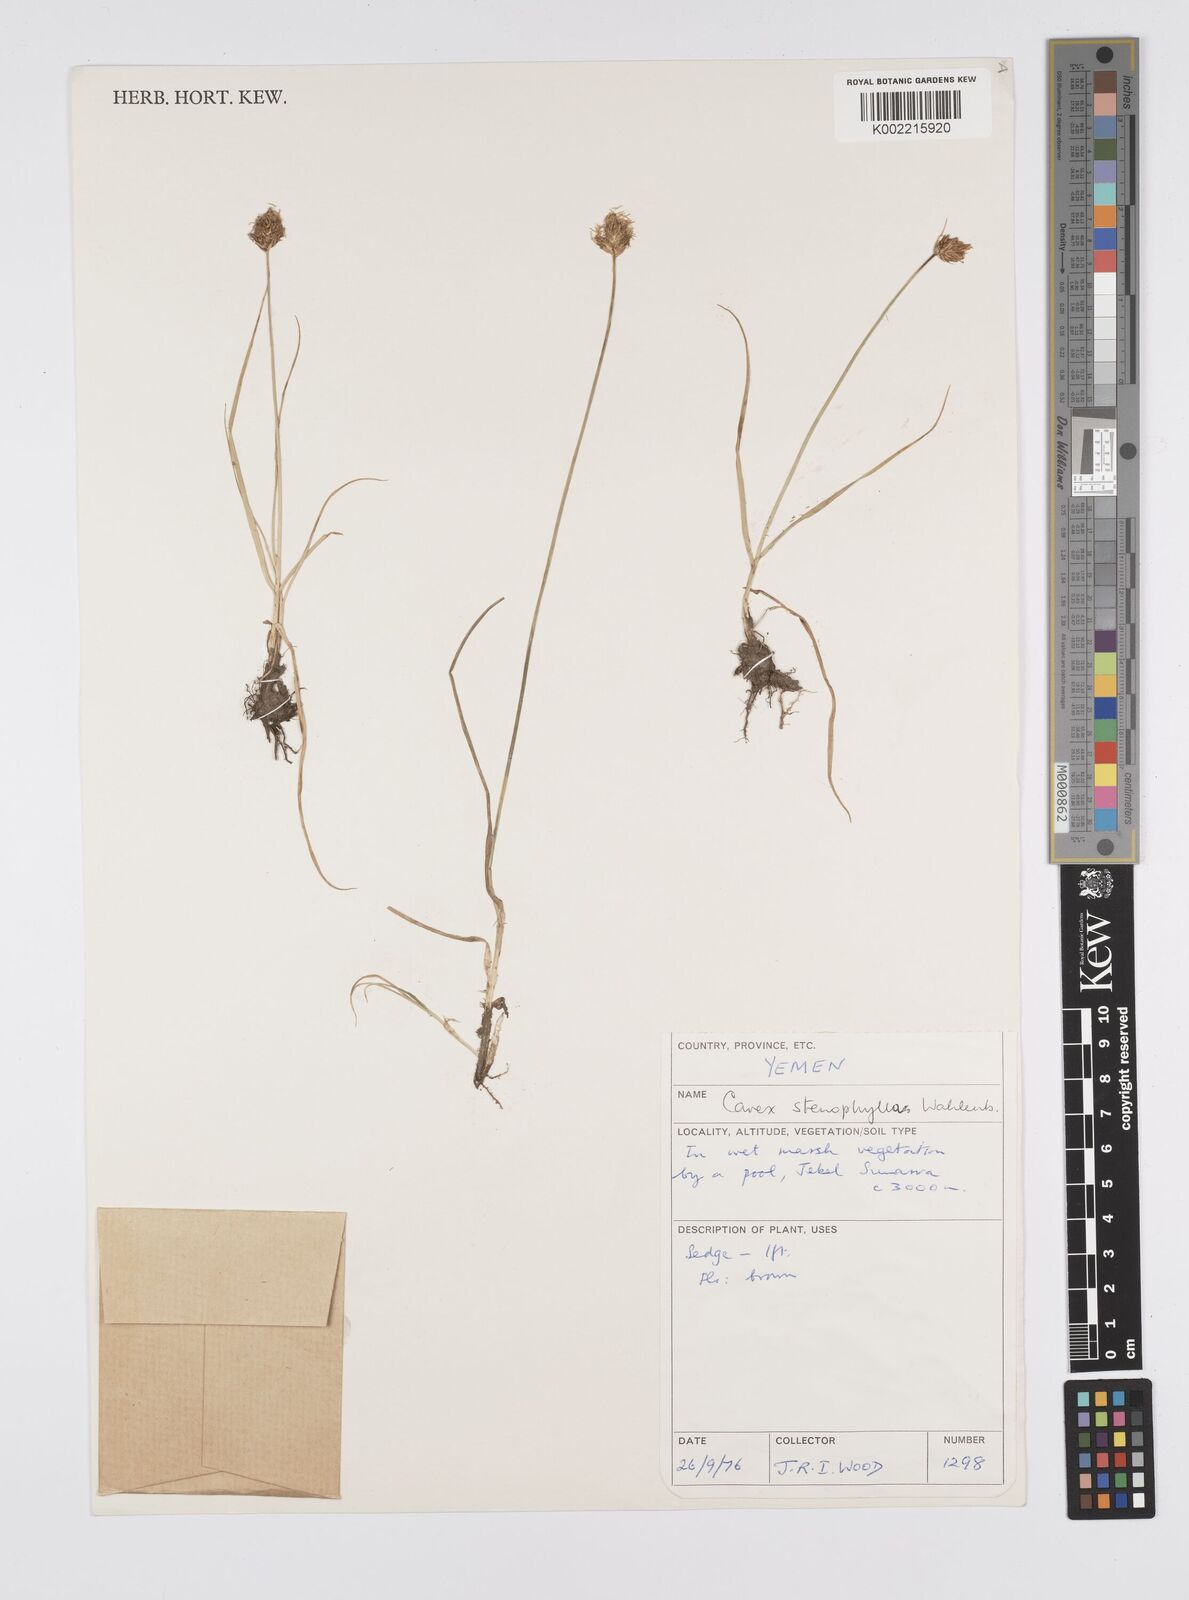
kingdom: Plantae
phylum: Tracheophyta
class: Liliopsida
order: Poales
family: Cyperaceae
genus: Carex
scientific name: Carex stenophylla
